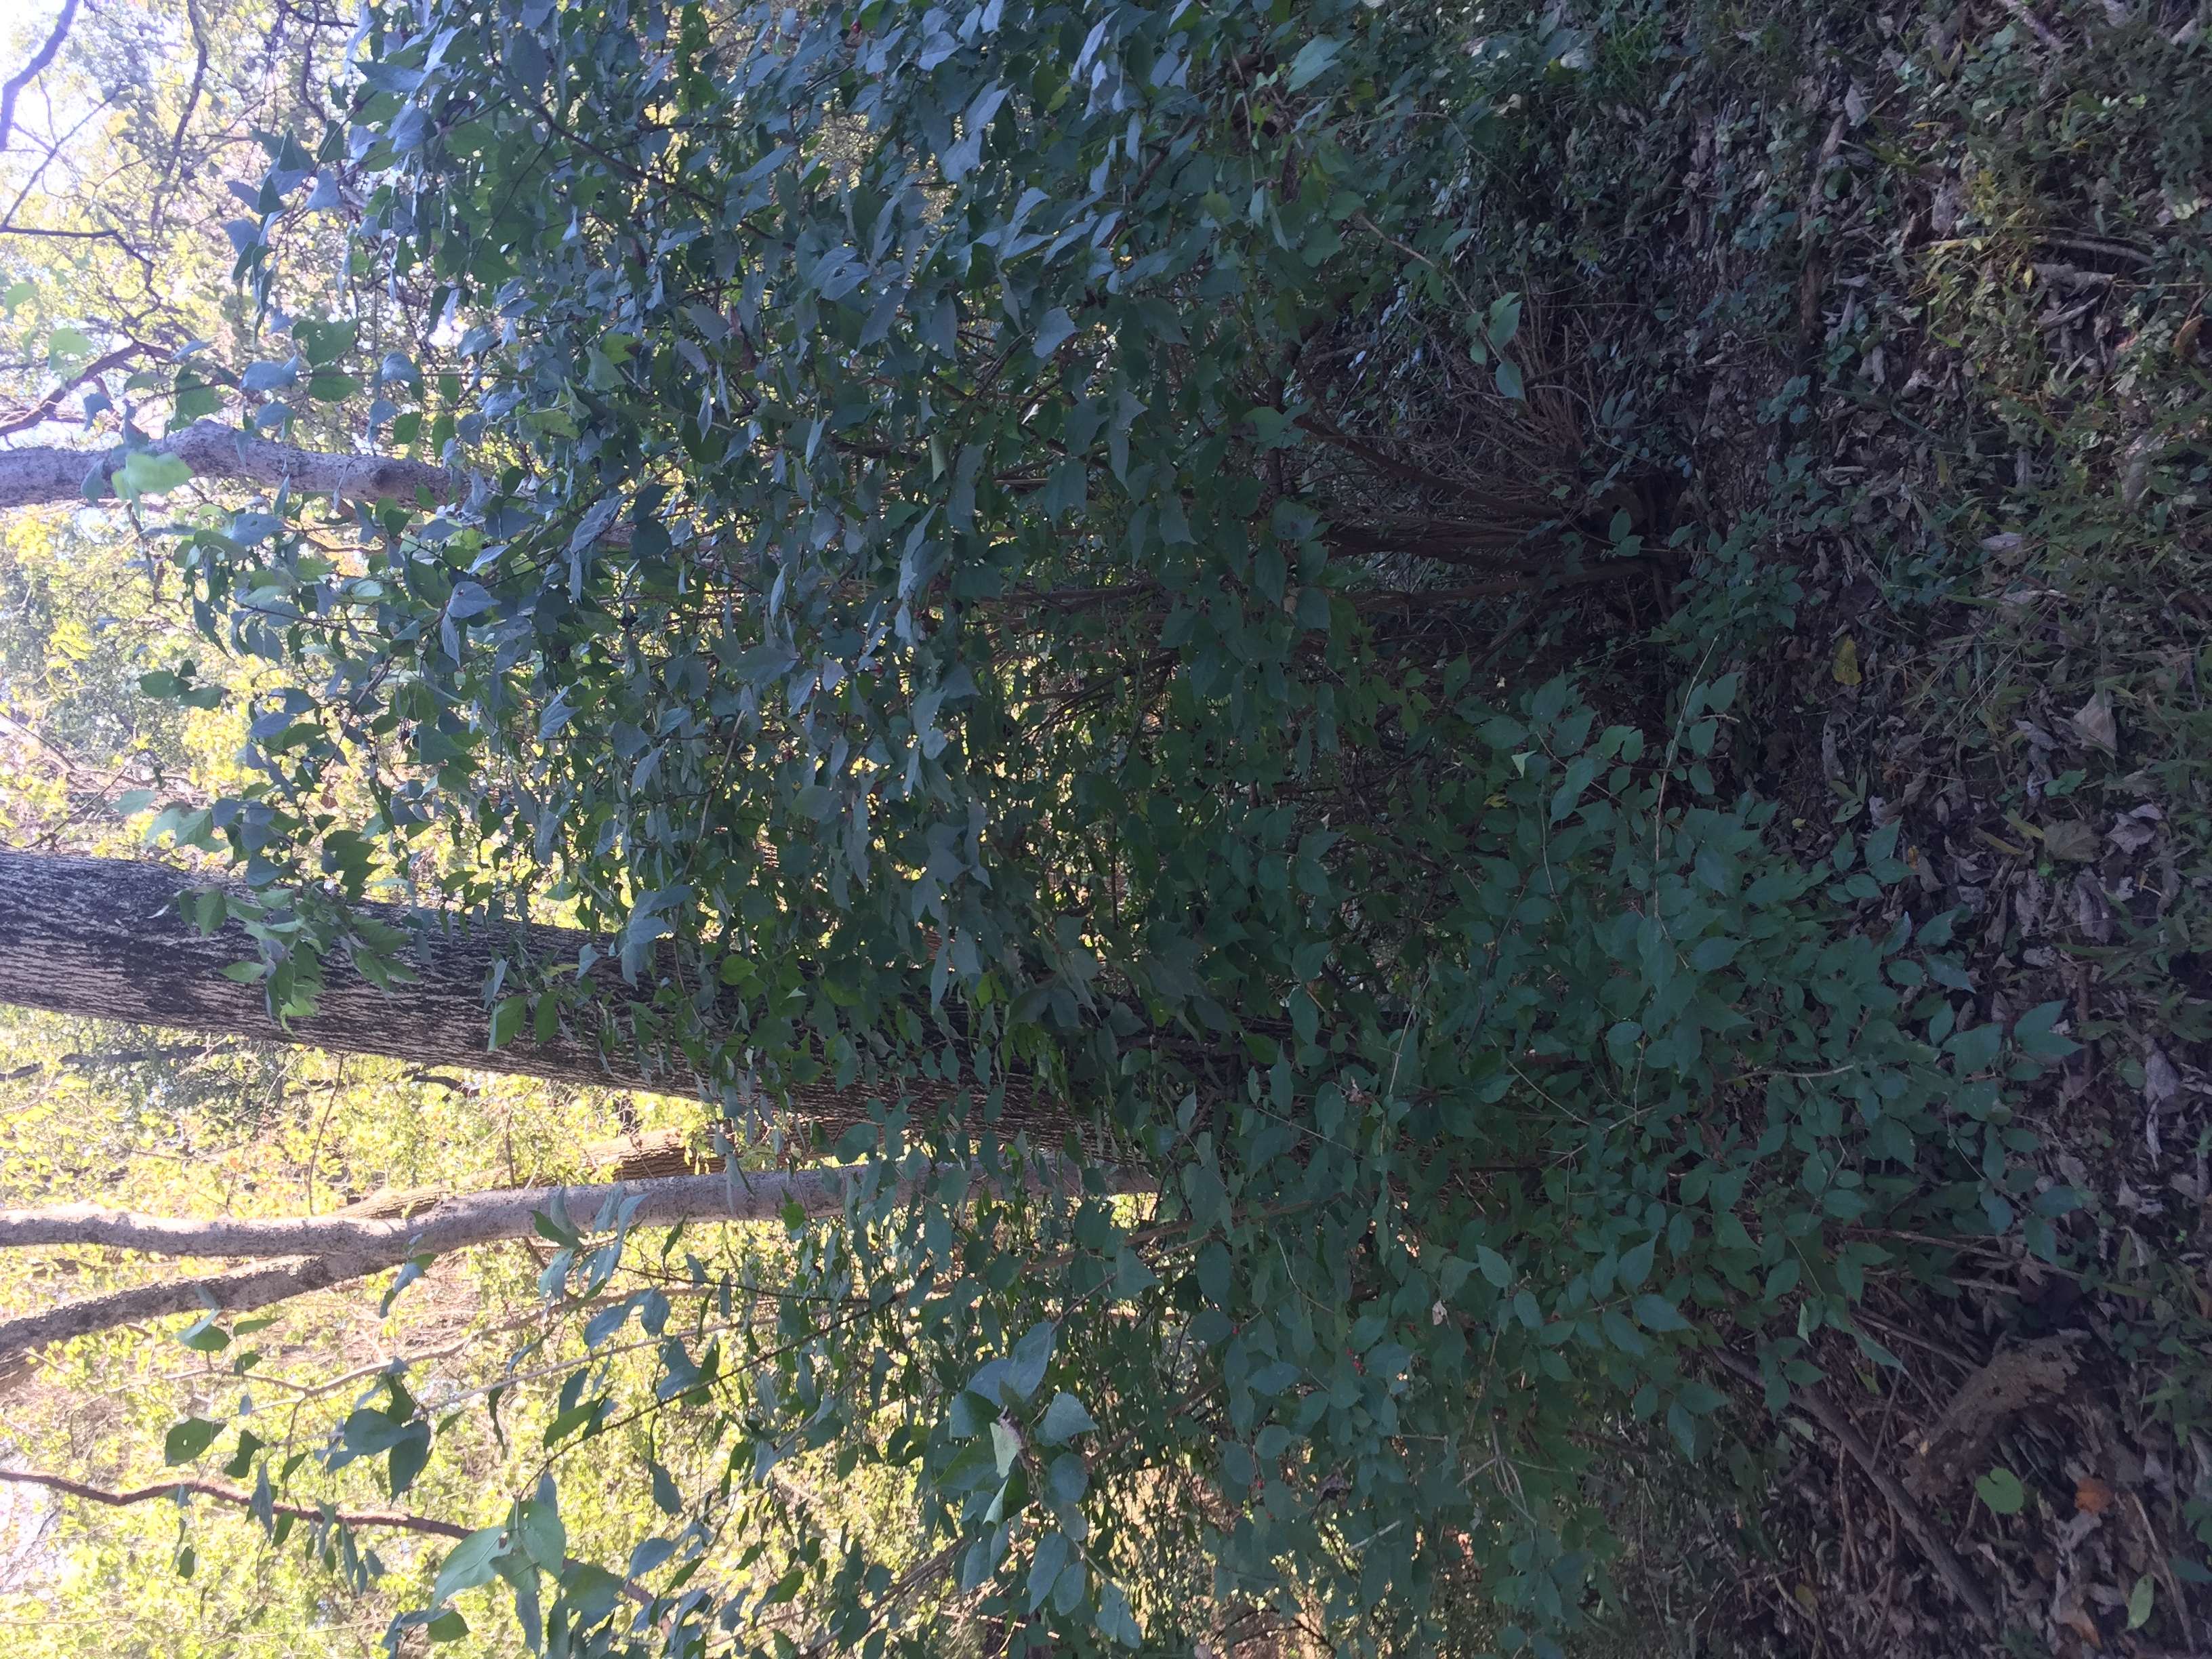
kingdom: Plantae
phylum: Tracheophyta
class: Magnoliopsida
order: Dipsacales
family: Caprifoliaceae
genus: Lonicera
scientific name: Lonicera maackii
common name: Amur Honeysuckle
